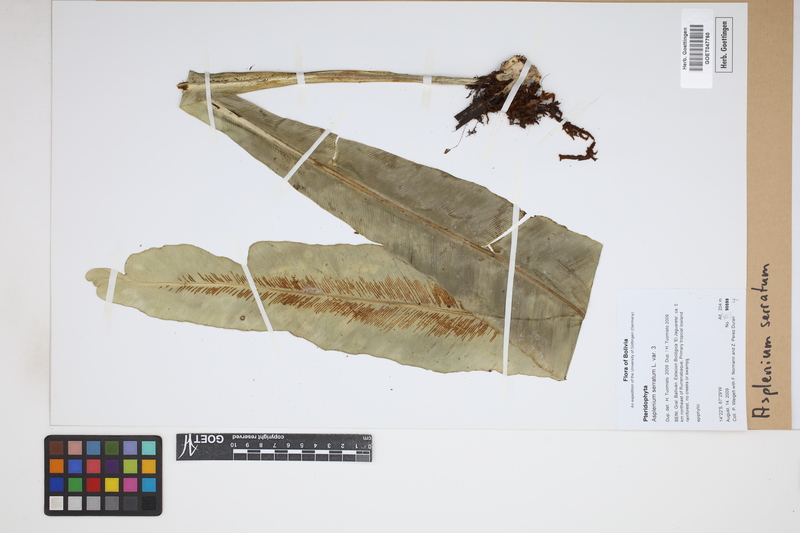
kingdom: Plantae
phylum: Tracheophyta
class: Polypodiopsida
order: Polypodiales
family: Aspleniaceae
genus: Asplenium
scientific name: Asplenium serratum
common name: Wild birdnest fern
